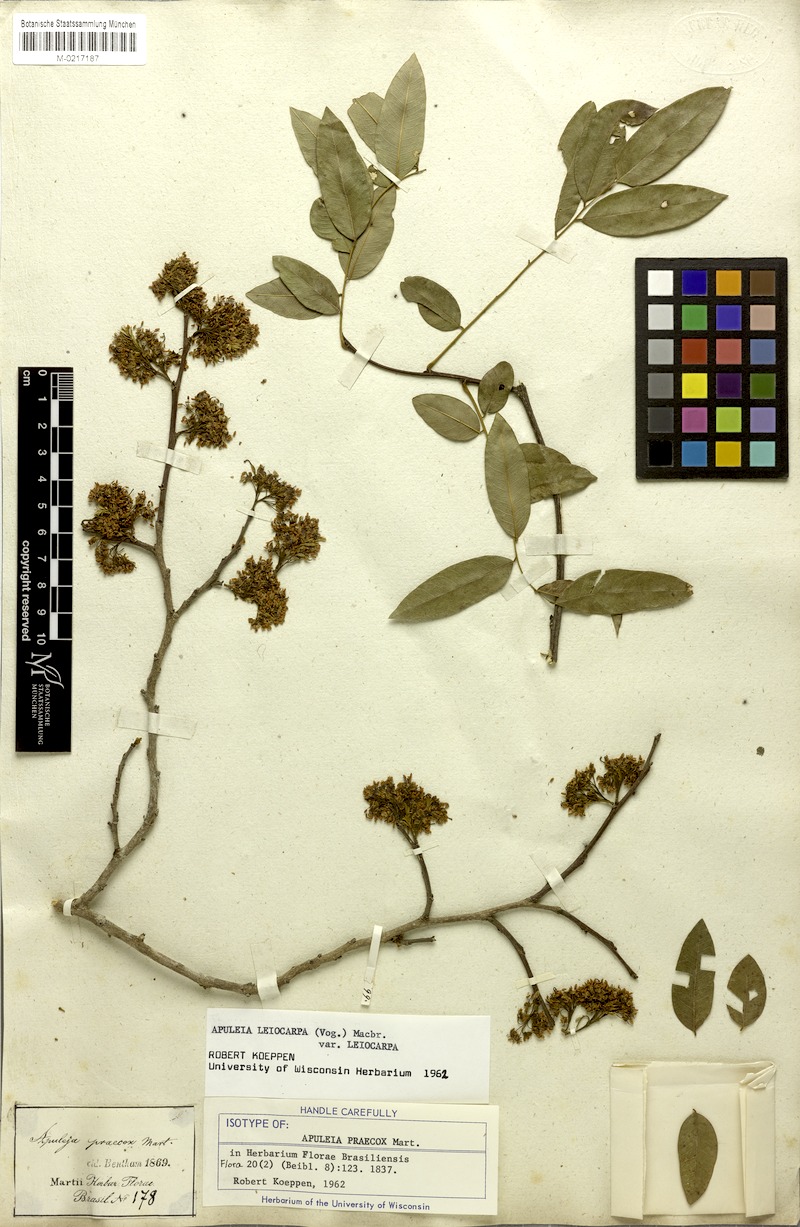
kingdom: Plantae
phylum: Tracheophyta
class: Magnoliopsida
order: Fabales
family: Fabaceae
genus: Apuleia
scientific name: Apuleia leiocarpa
